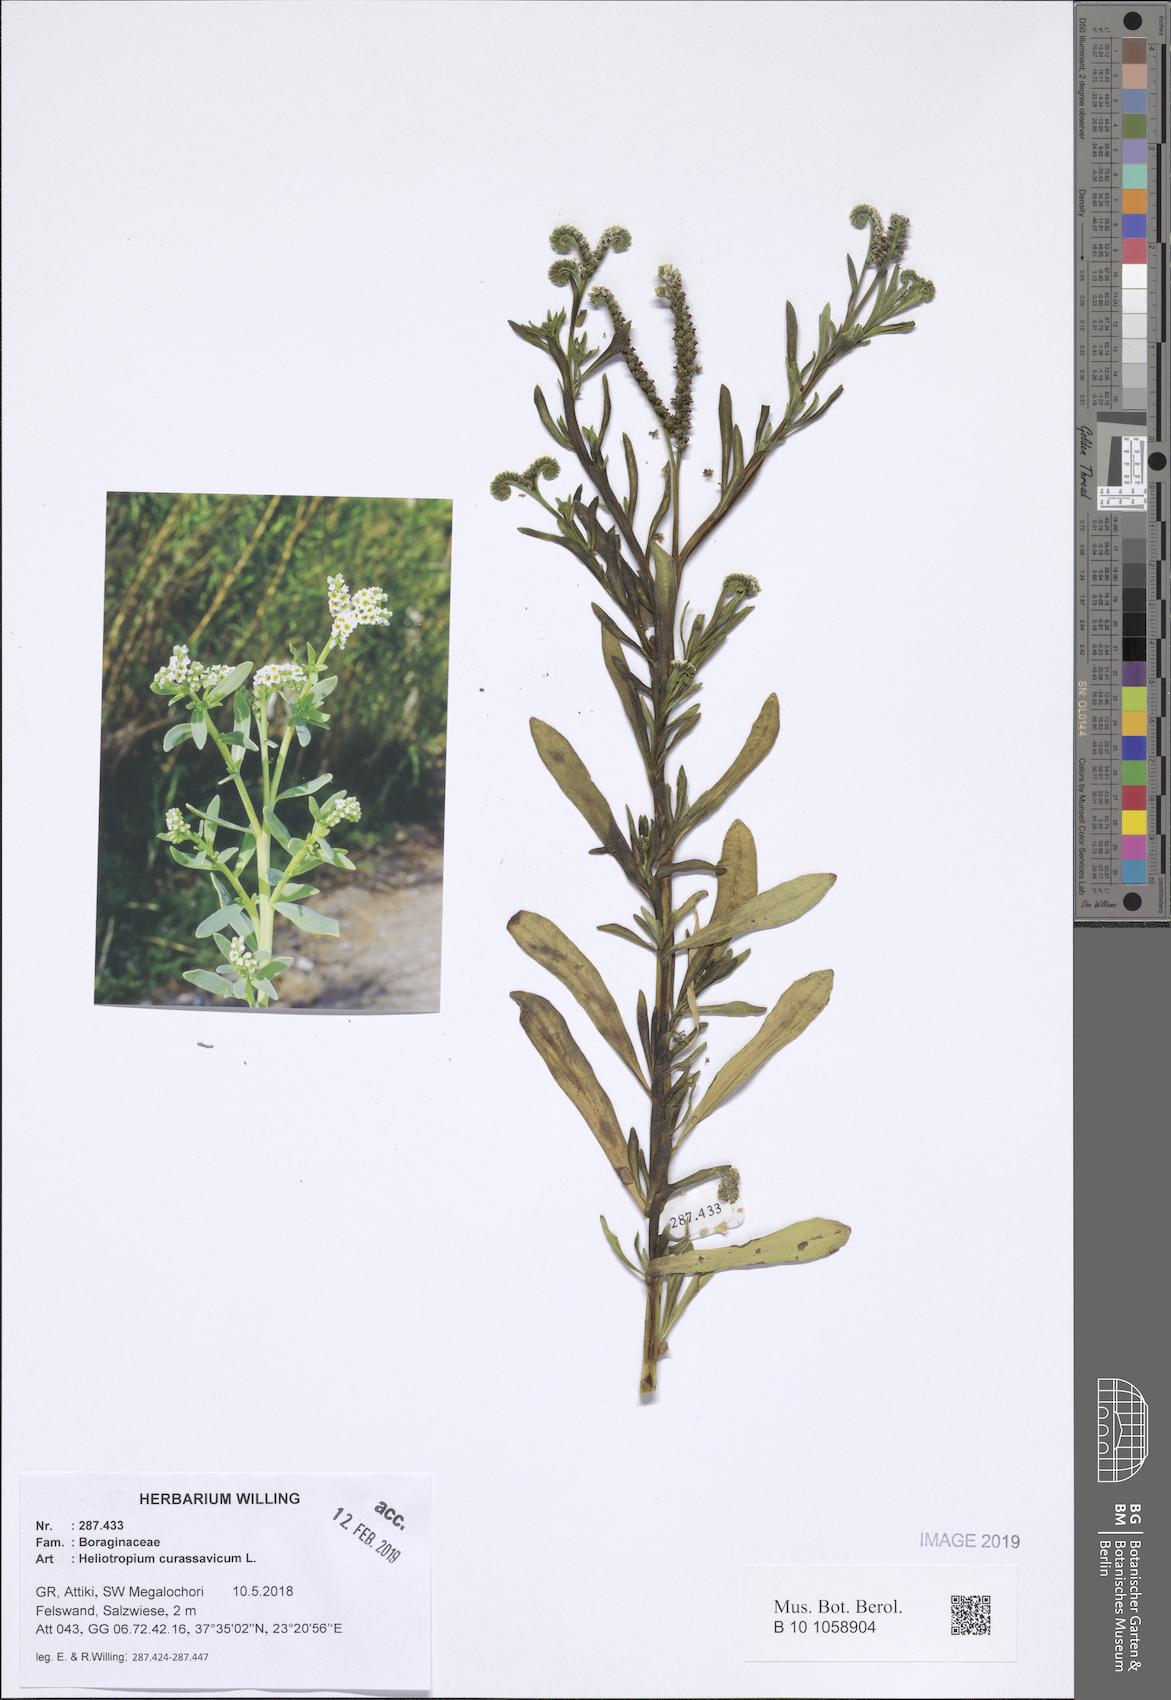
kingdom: Plantae
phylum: Tracheophyta
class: Magnoliopsida
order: Boraginales
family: Heliotropiaceae
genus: Heliotropium
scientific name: Heliotropium curassavicum
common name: Seaside heliotrope
